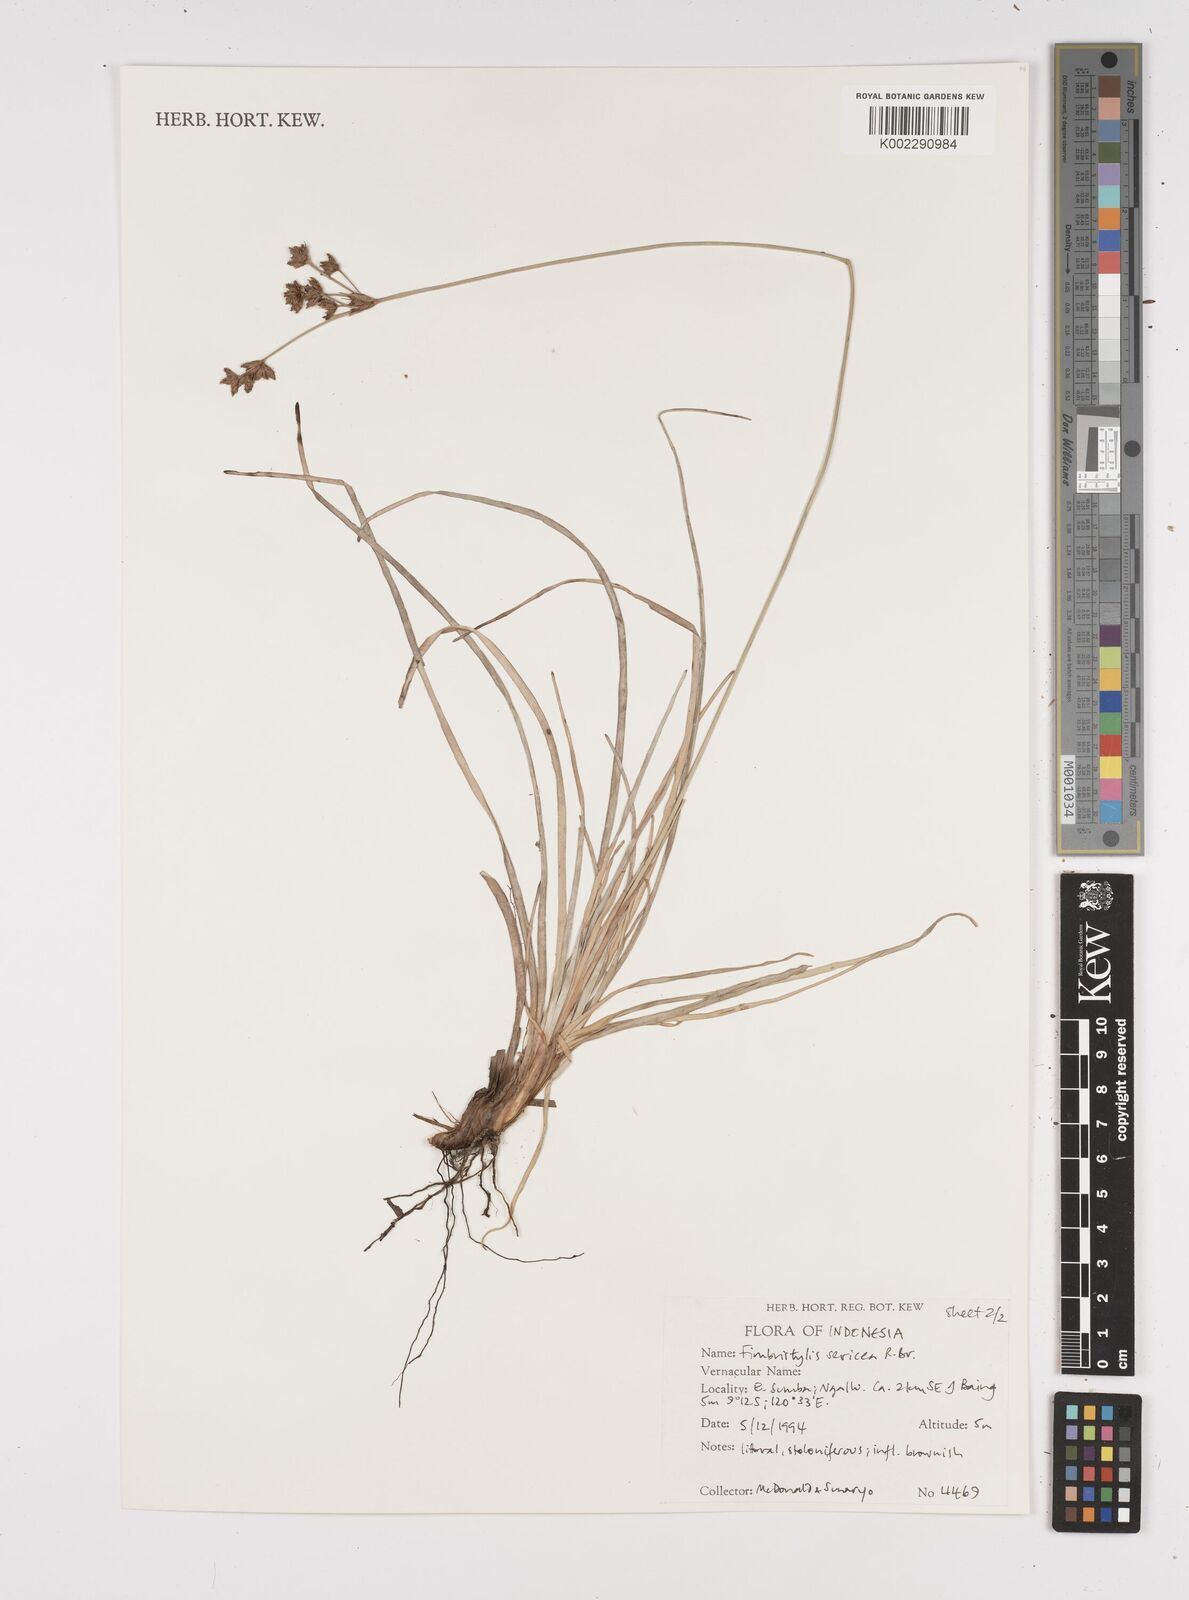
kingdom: Plantae
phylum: Tracheophyta
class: Liliopsida
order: Poales
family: Cyperaceae
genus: Fimbristylis
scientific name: Fimbristylis sericea
